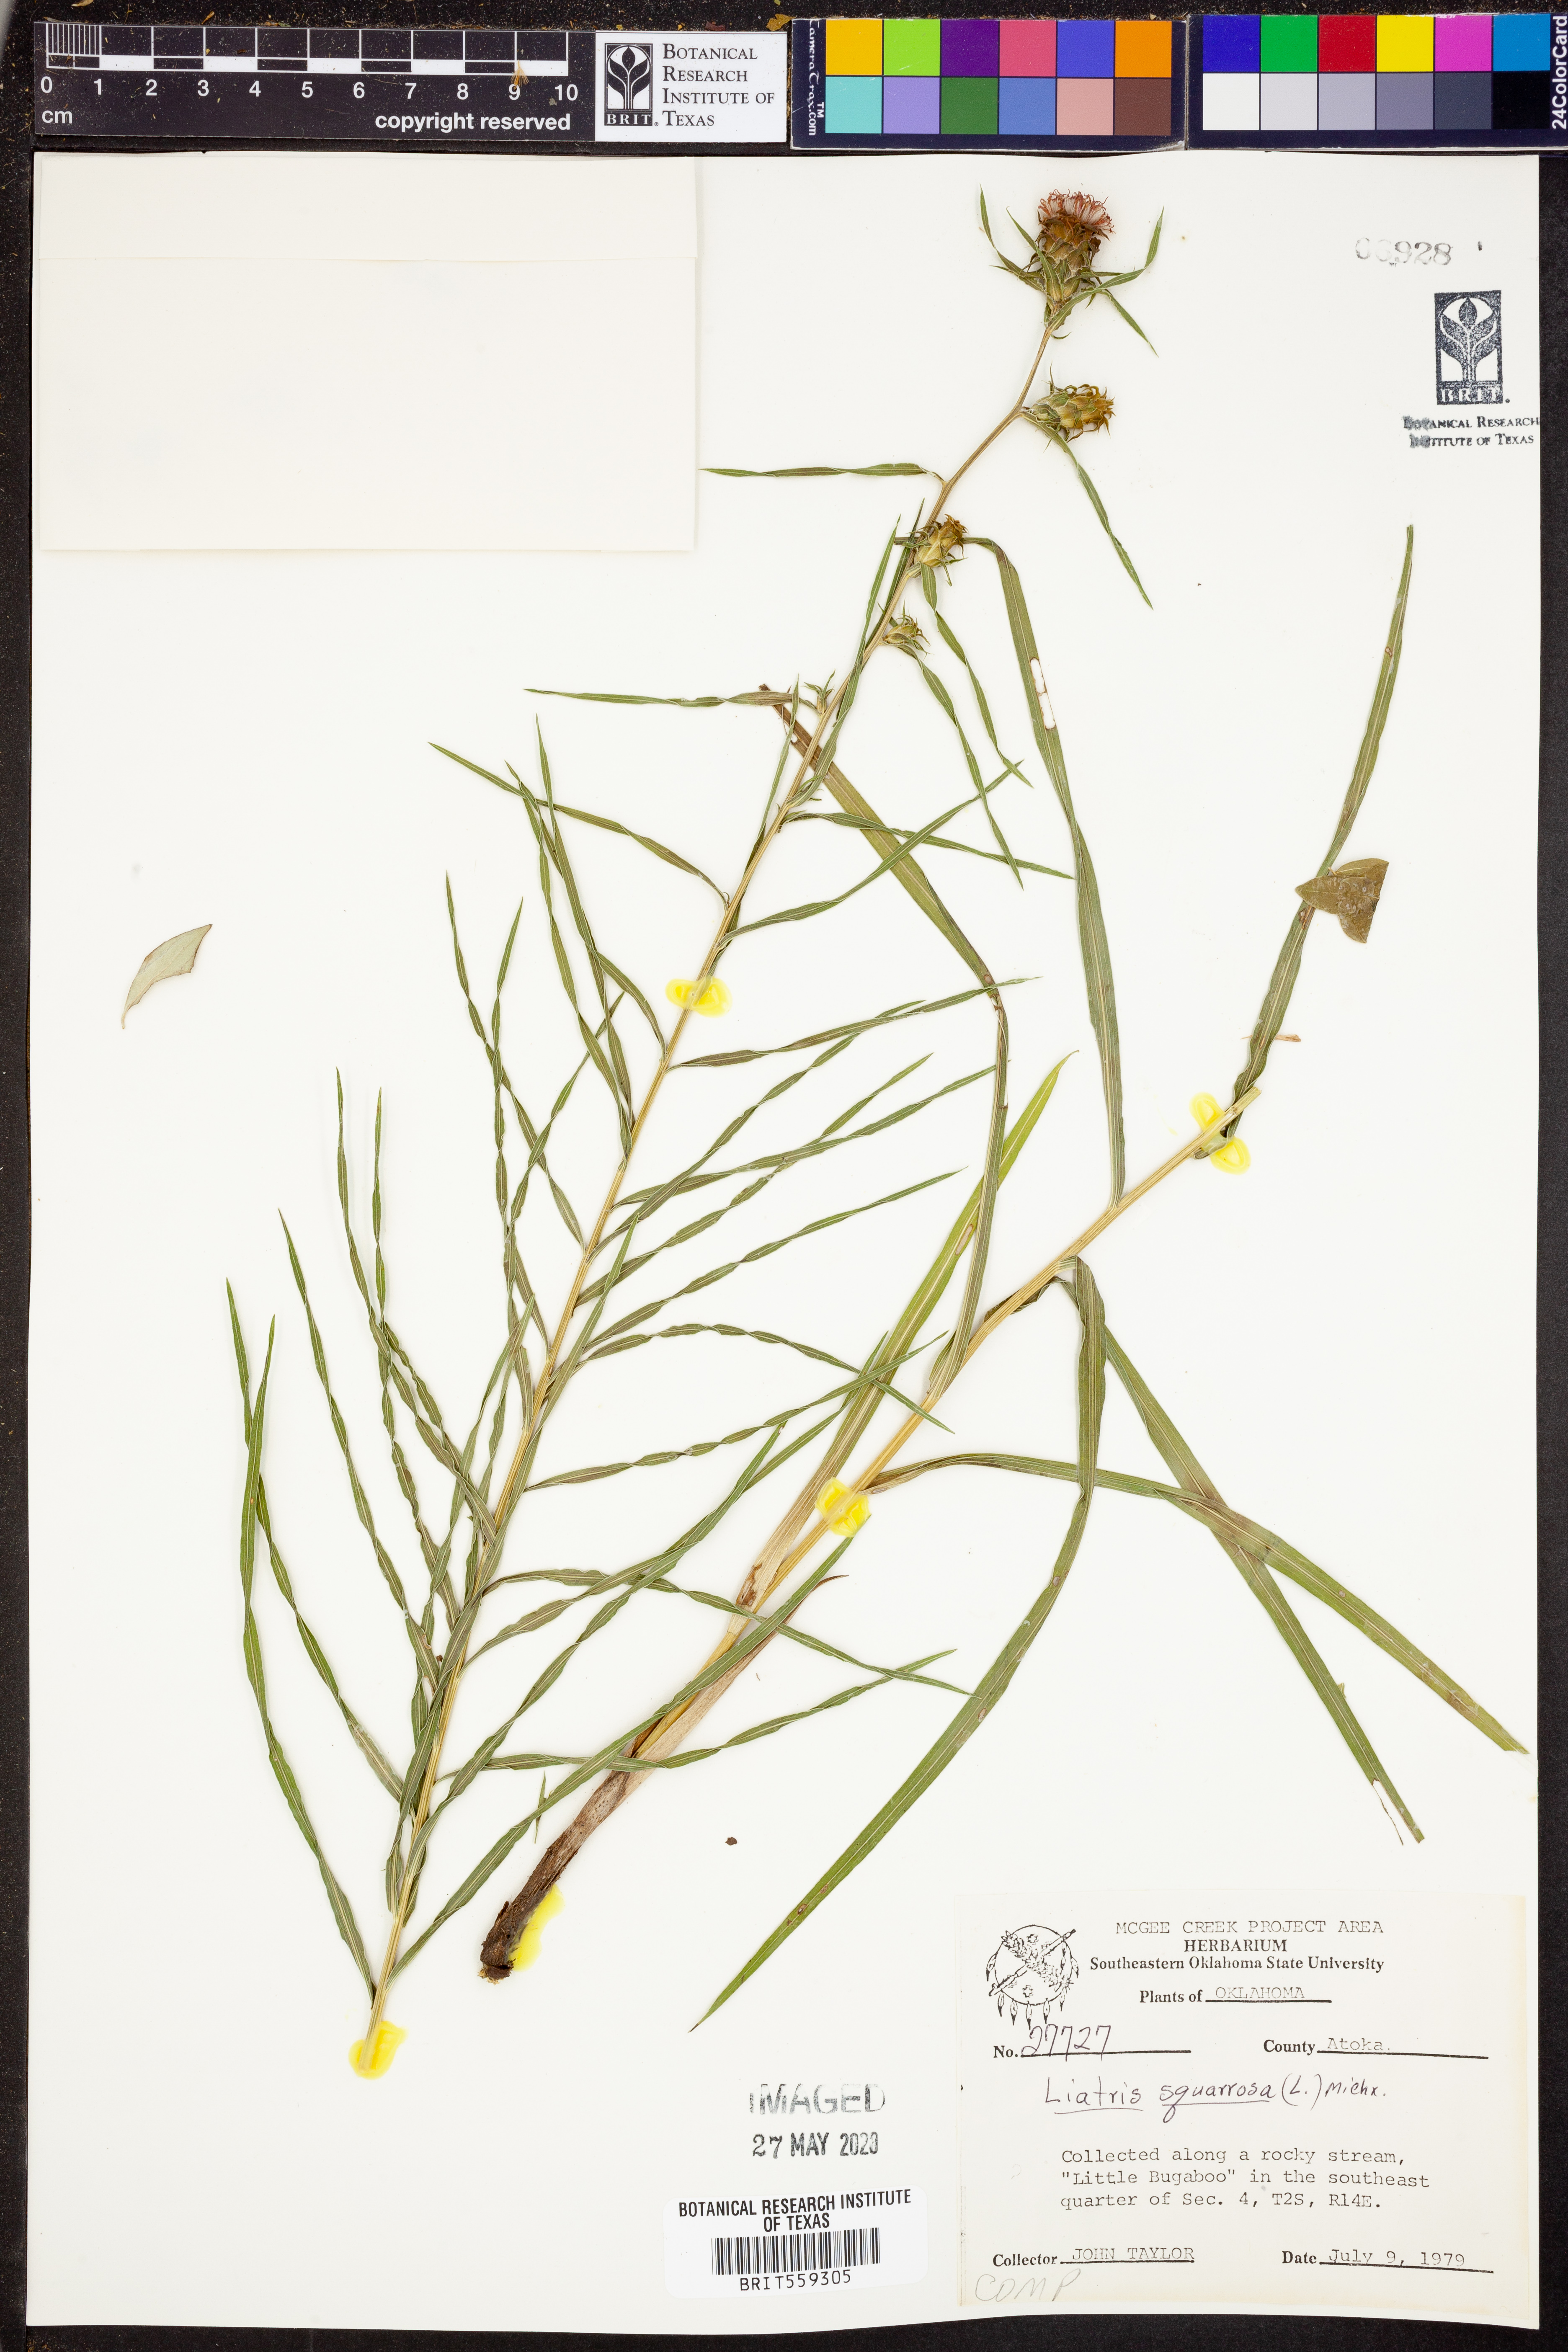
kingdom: Plantae
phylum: Tracheophyta
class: Magnoliopsida
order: Asterales
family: Asteraceae
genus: Liatris
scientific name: Liatris squarrosa
